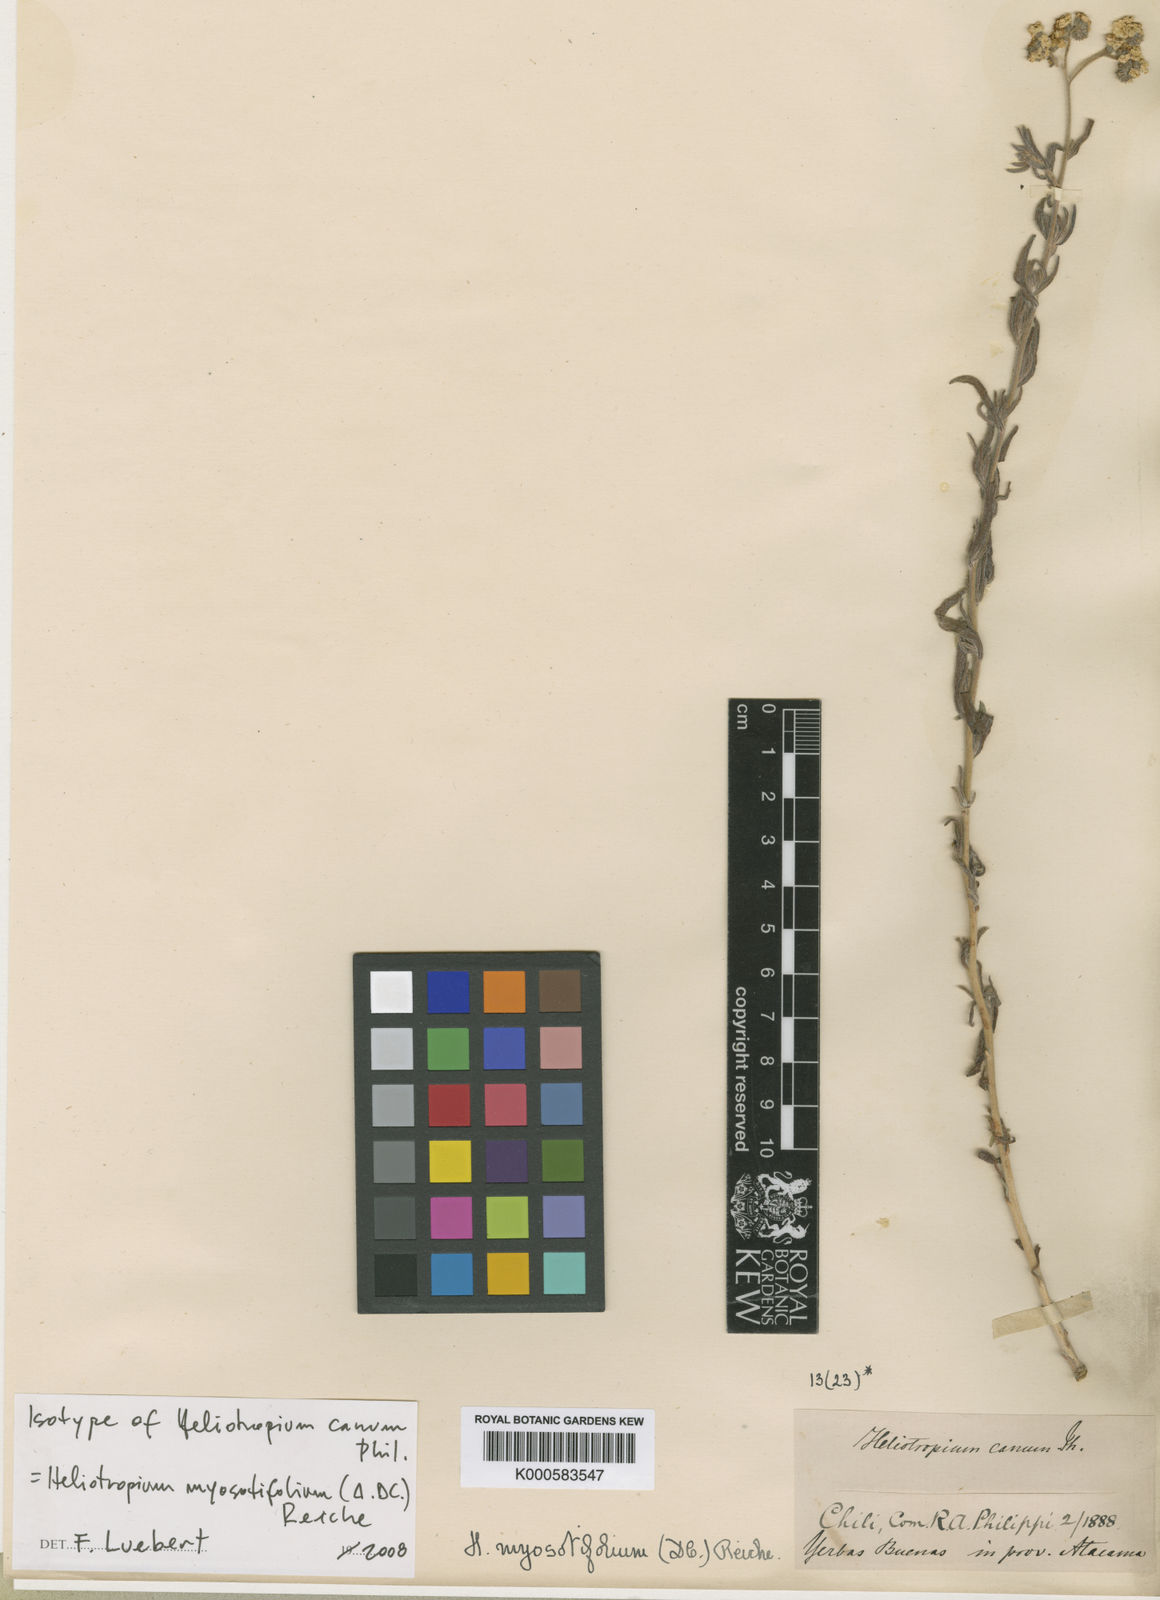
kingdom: Plantae
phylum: Tracheophyta
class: Magnoliopsida
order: Boraginales
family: Heliotropiaceae
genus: Heliotropium
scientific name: Heliotropium myosotifolium
